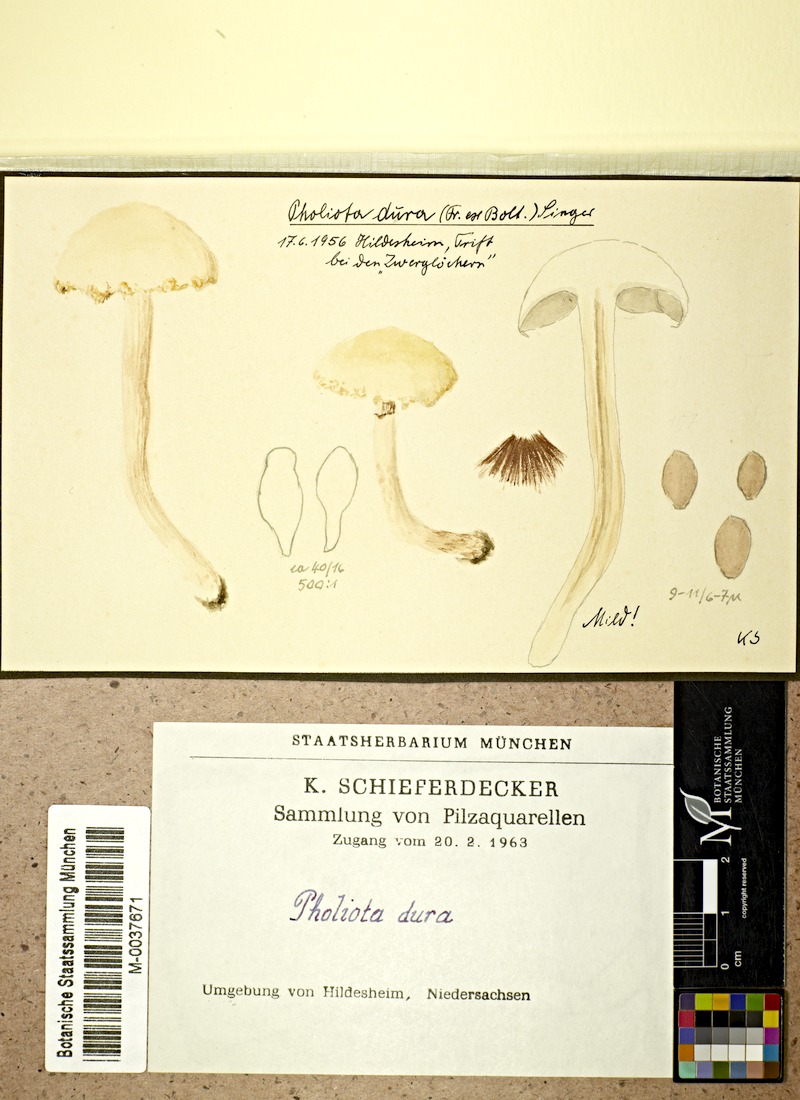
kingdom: Fungi
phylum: Basidiomycota
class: Agaricomycetes
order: Agaricales
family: Strophariaceae
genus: Agrocybe
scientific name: Agrocybe dura
